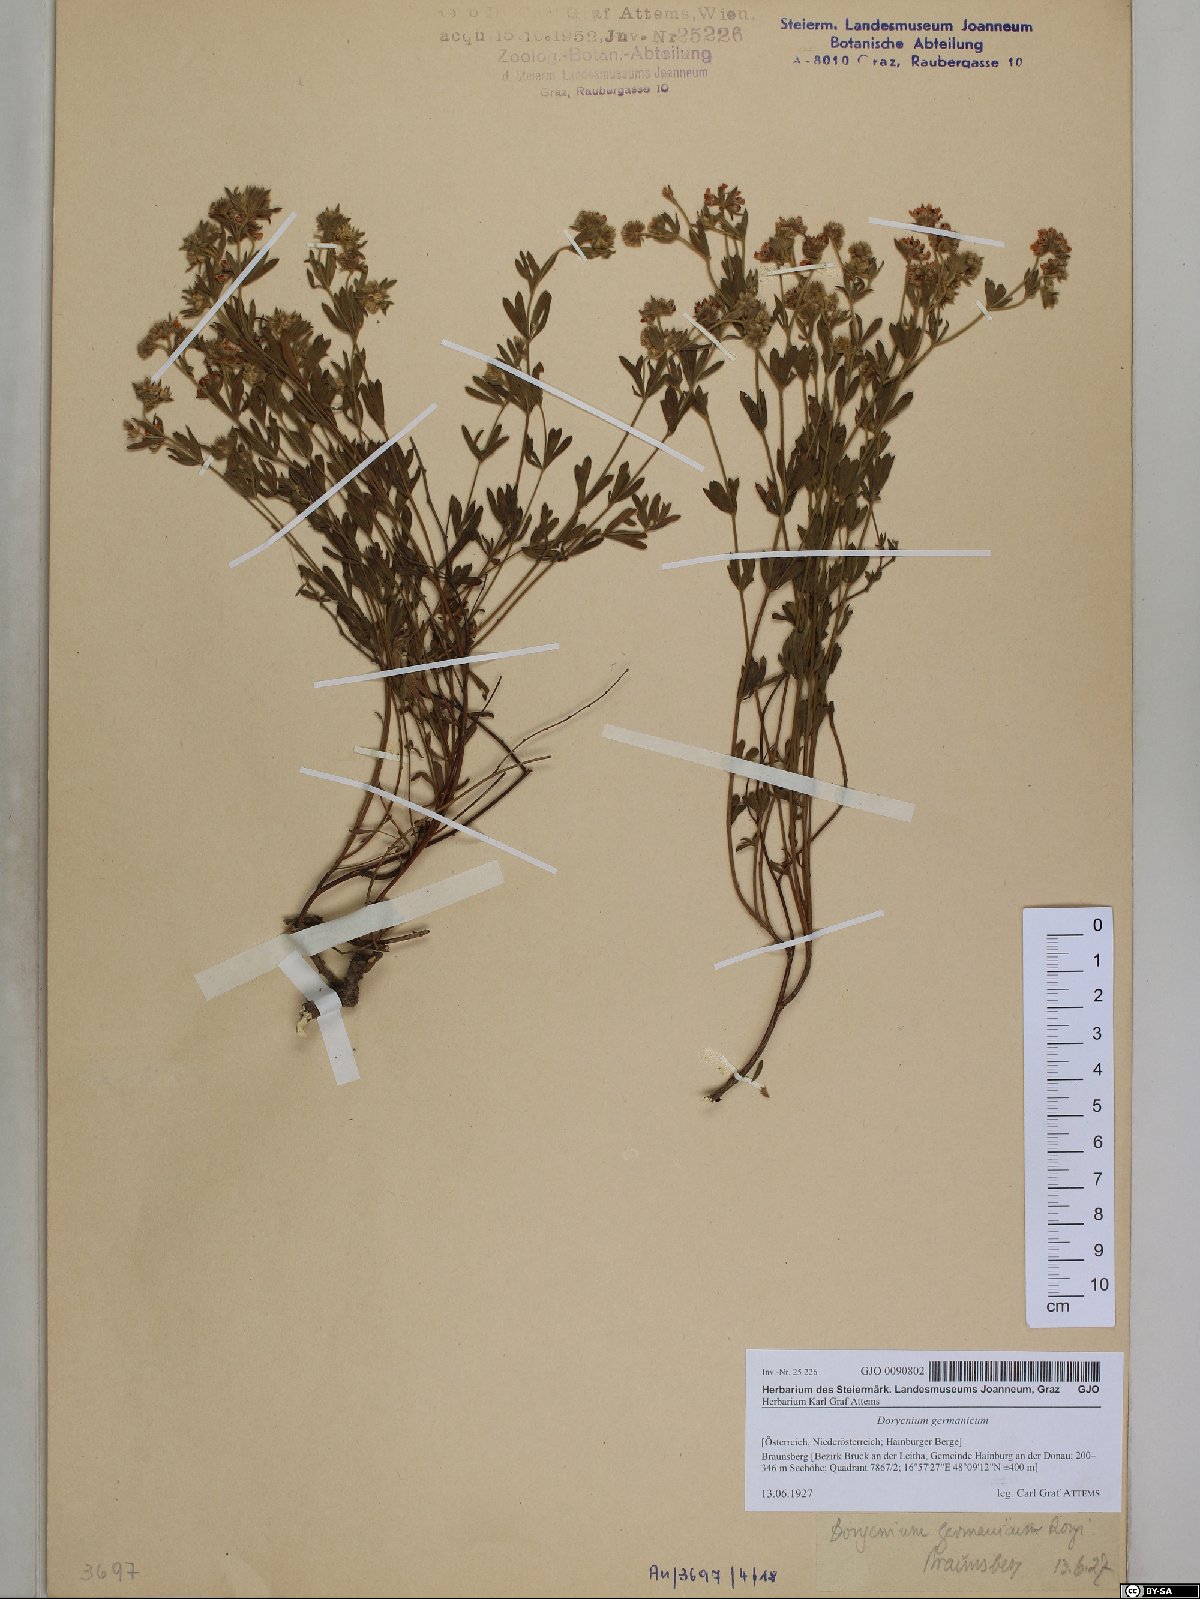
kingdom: Plantae
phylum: Tracheophyta
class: Magnoliopsida
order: Fabales
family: Fabaceae
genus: Lotus
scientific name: Lotus germanicus
